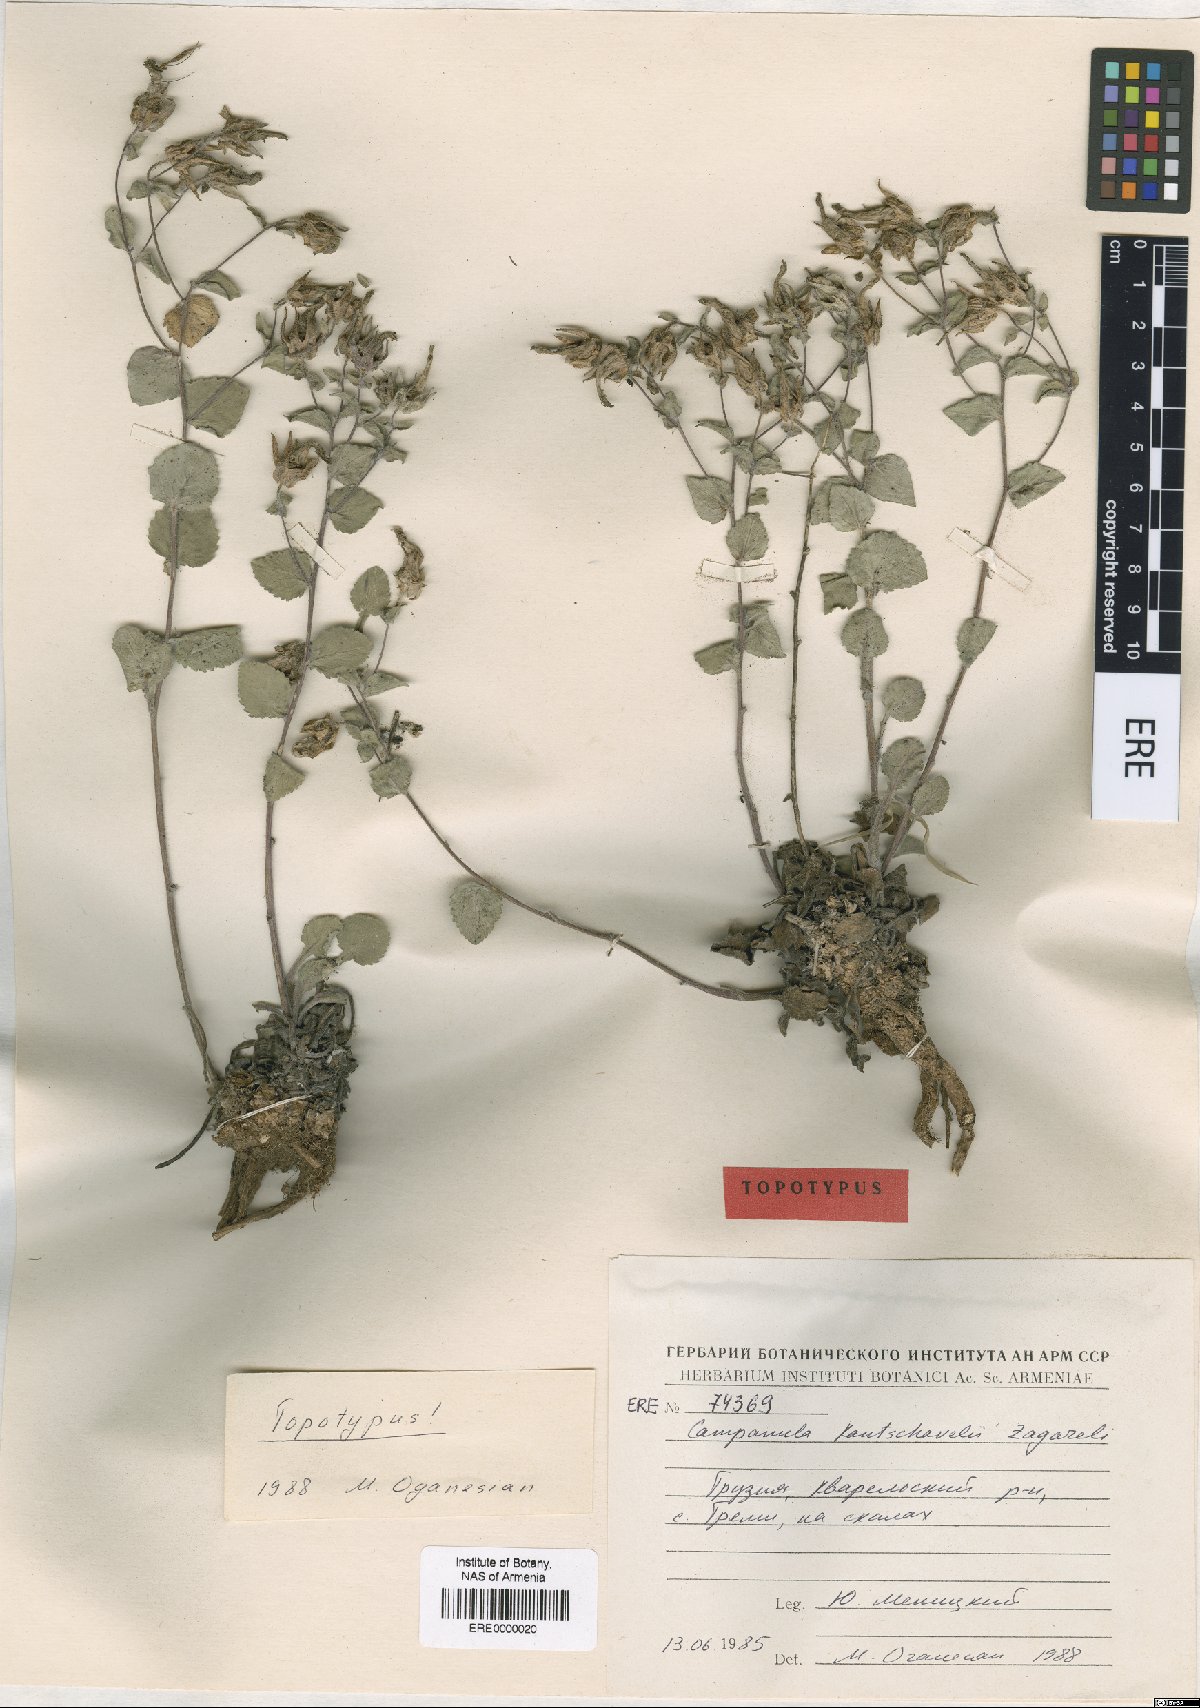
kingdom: Plantae
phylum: Tracheophyta
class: Magnoliopsida
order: Asterales
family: Campanulaceae
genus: Campanula
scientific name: Campanula kantschavelii
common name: Kanchaveli's bellflower
